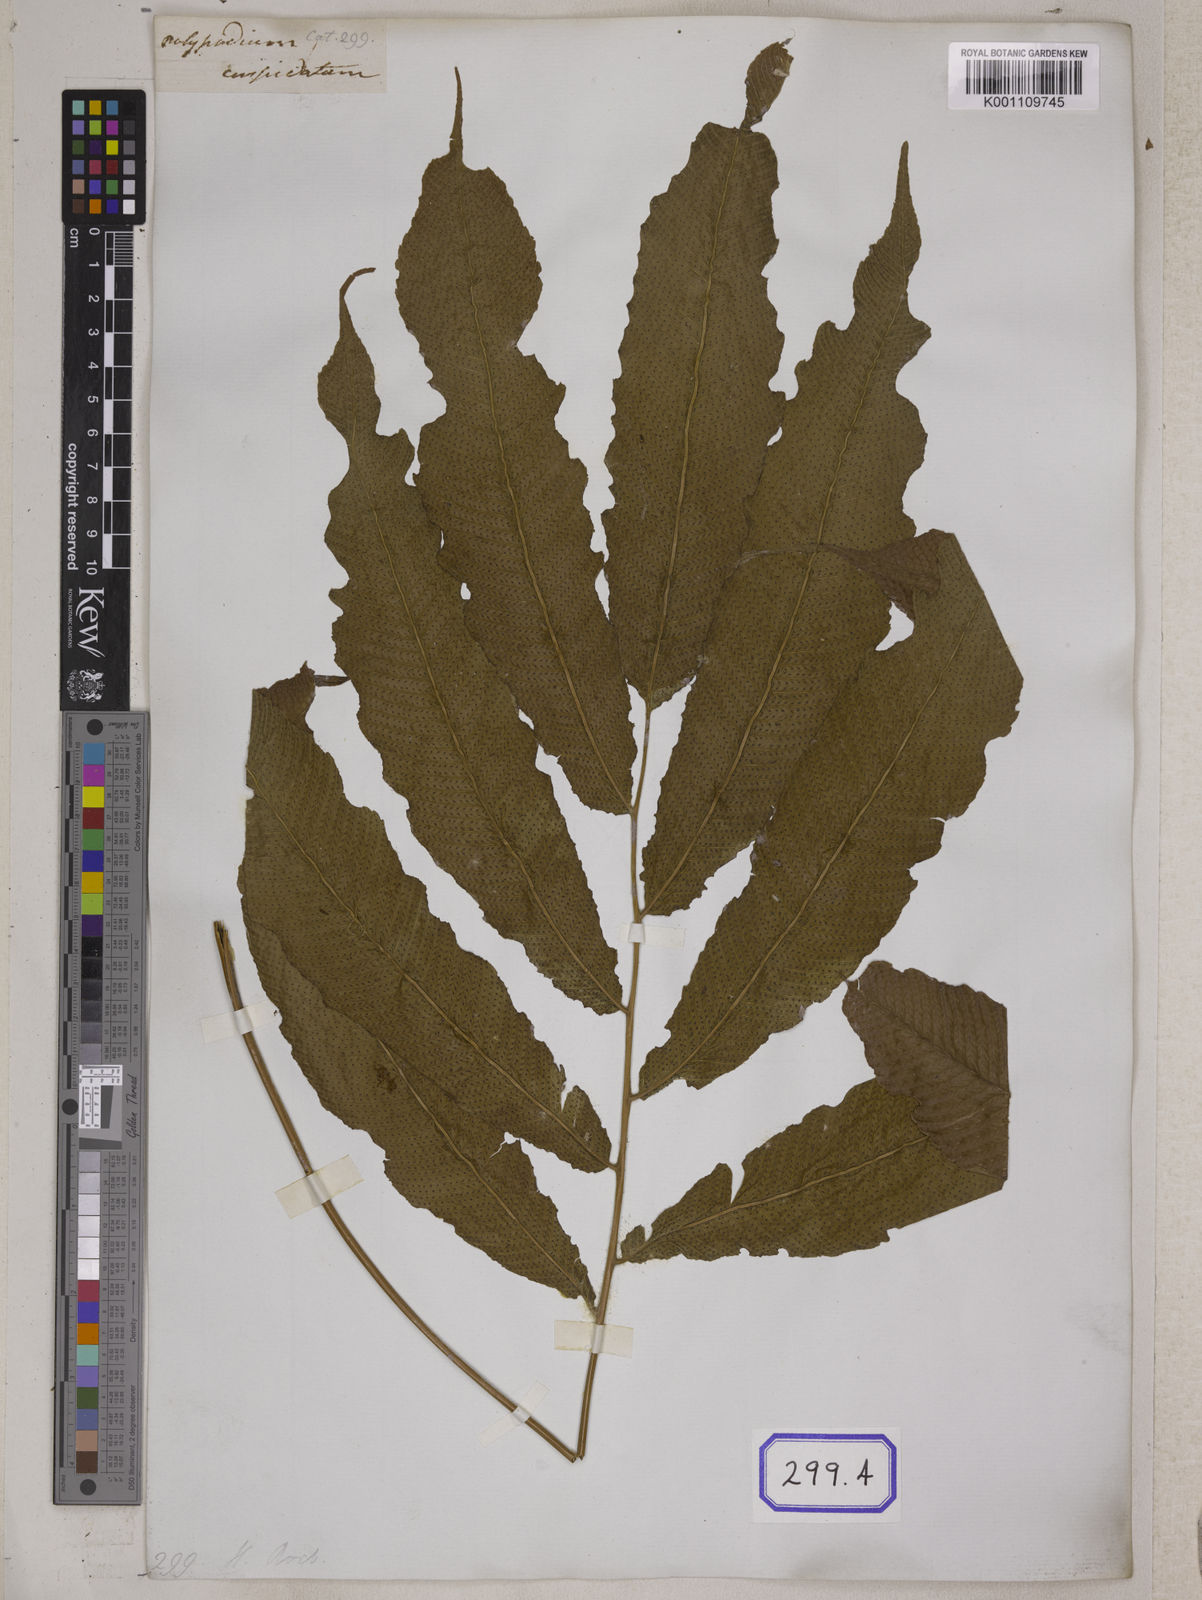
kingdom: Plantae
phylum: Tracheophyta
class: Polypodiopsida
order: Polypodiales
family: Thelypteridaceae
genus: Menisciopsis
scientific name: Menisciopsis penangiana
